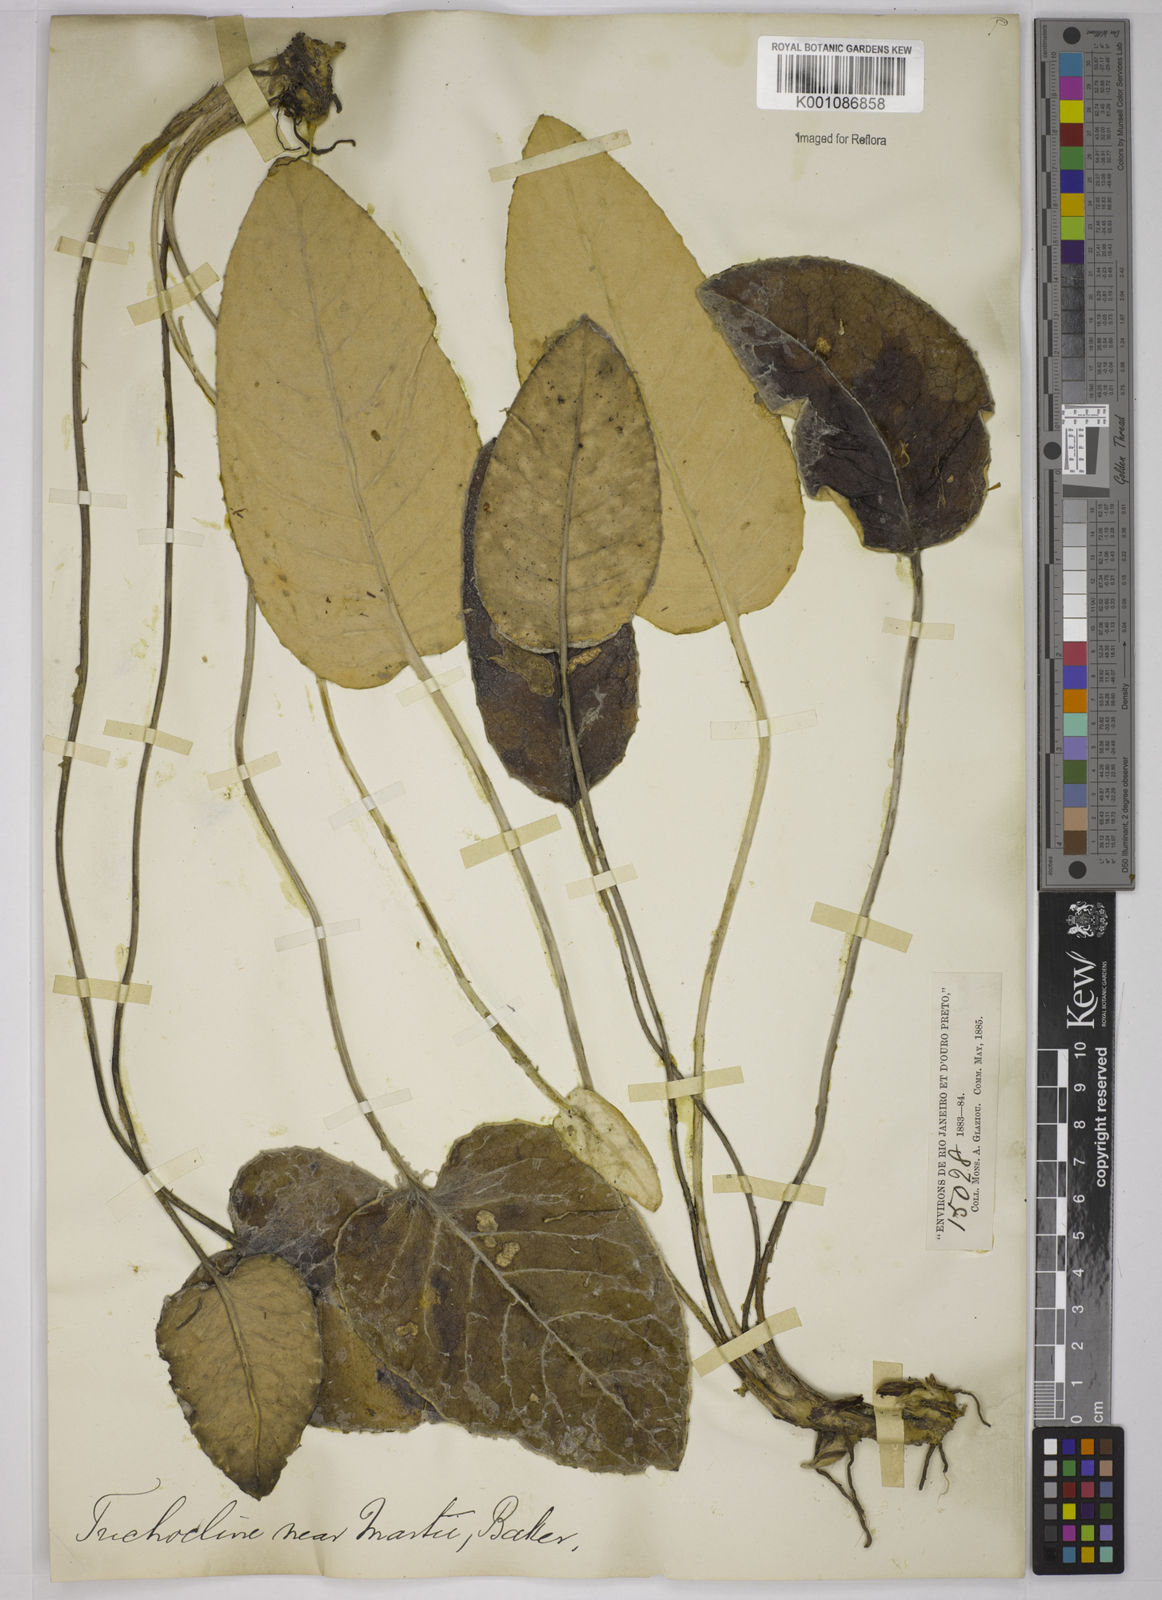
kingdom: Plantae
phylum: Tracheophyta
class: Magnoliopsida
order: Asterales
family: Asteraceae
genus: Chaptalia
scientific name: Chaptalia martii
